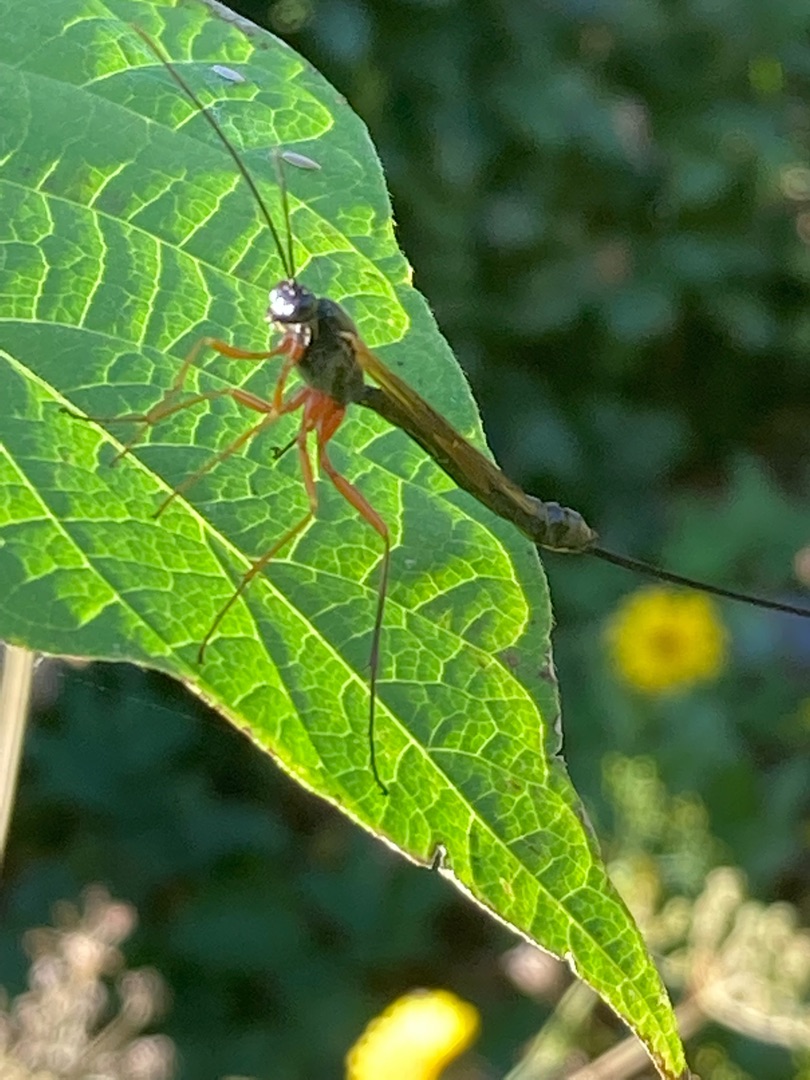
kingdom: Animalia
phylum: Arthropoda
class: Insecta
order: Hymenoptera
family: Ichneumonidae
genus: Dolichomitus
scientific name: Dolichomitus
